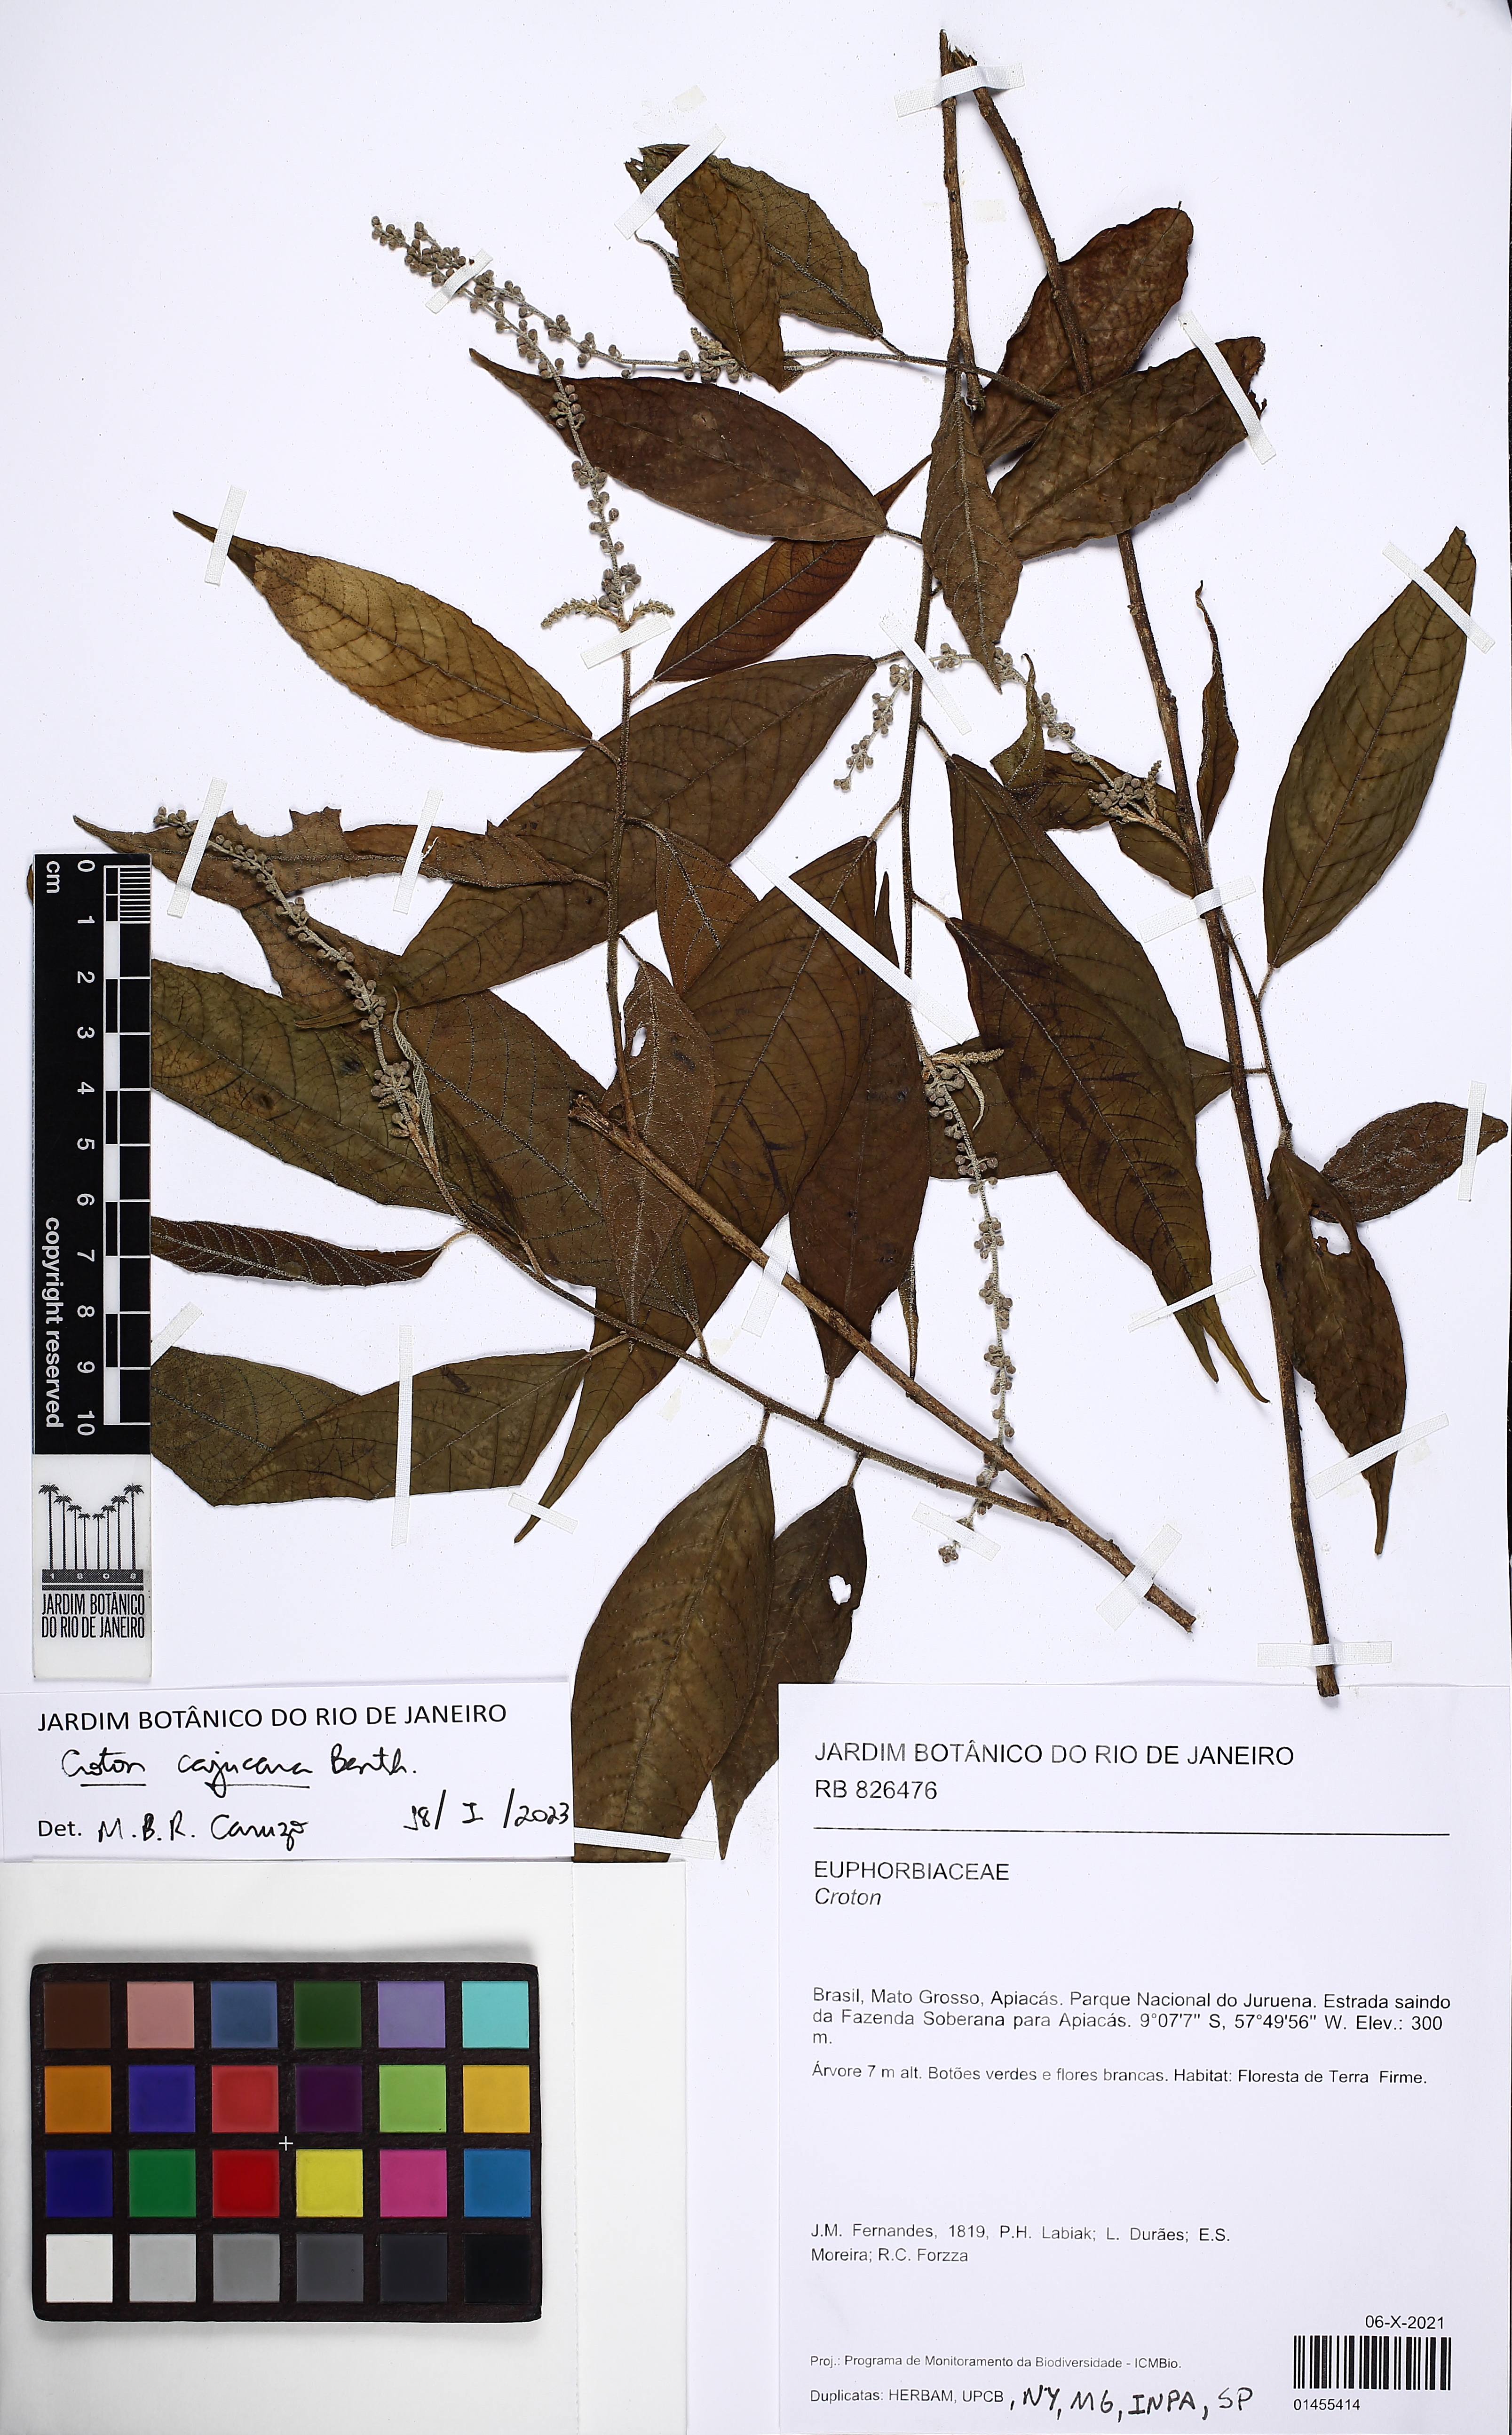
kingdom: Plantae
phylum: Tracheophyta
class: Magnoliopsida
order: Malpighiales
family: Euphorbiaceae
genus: Croton
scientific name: Croton cajucara
